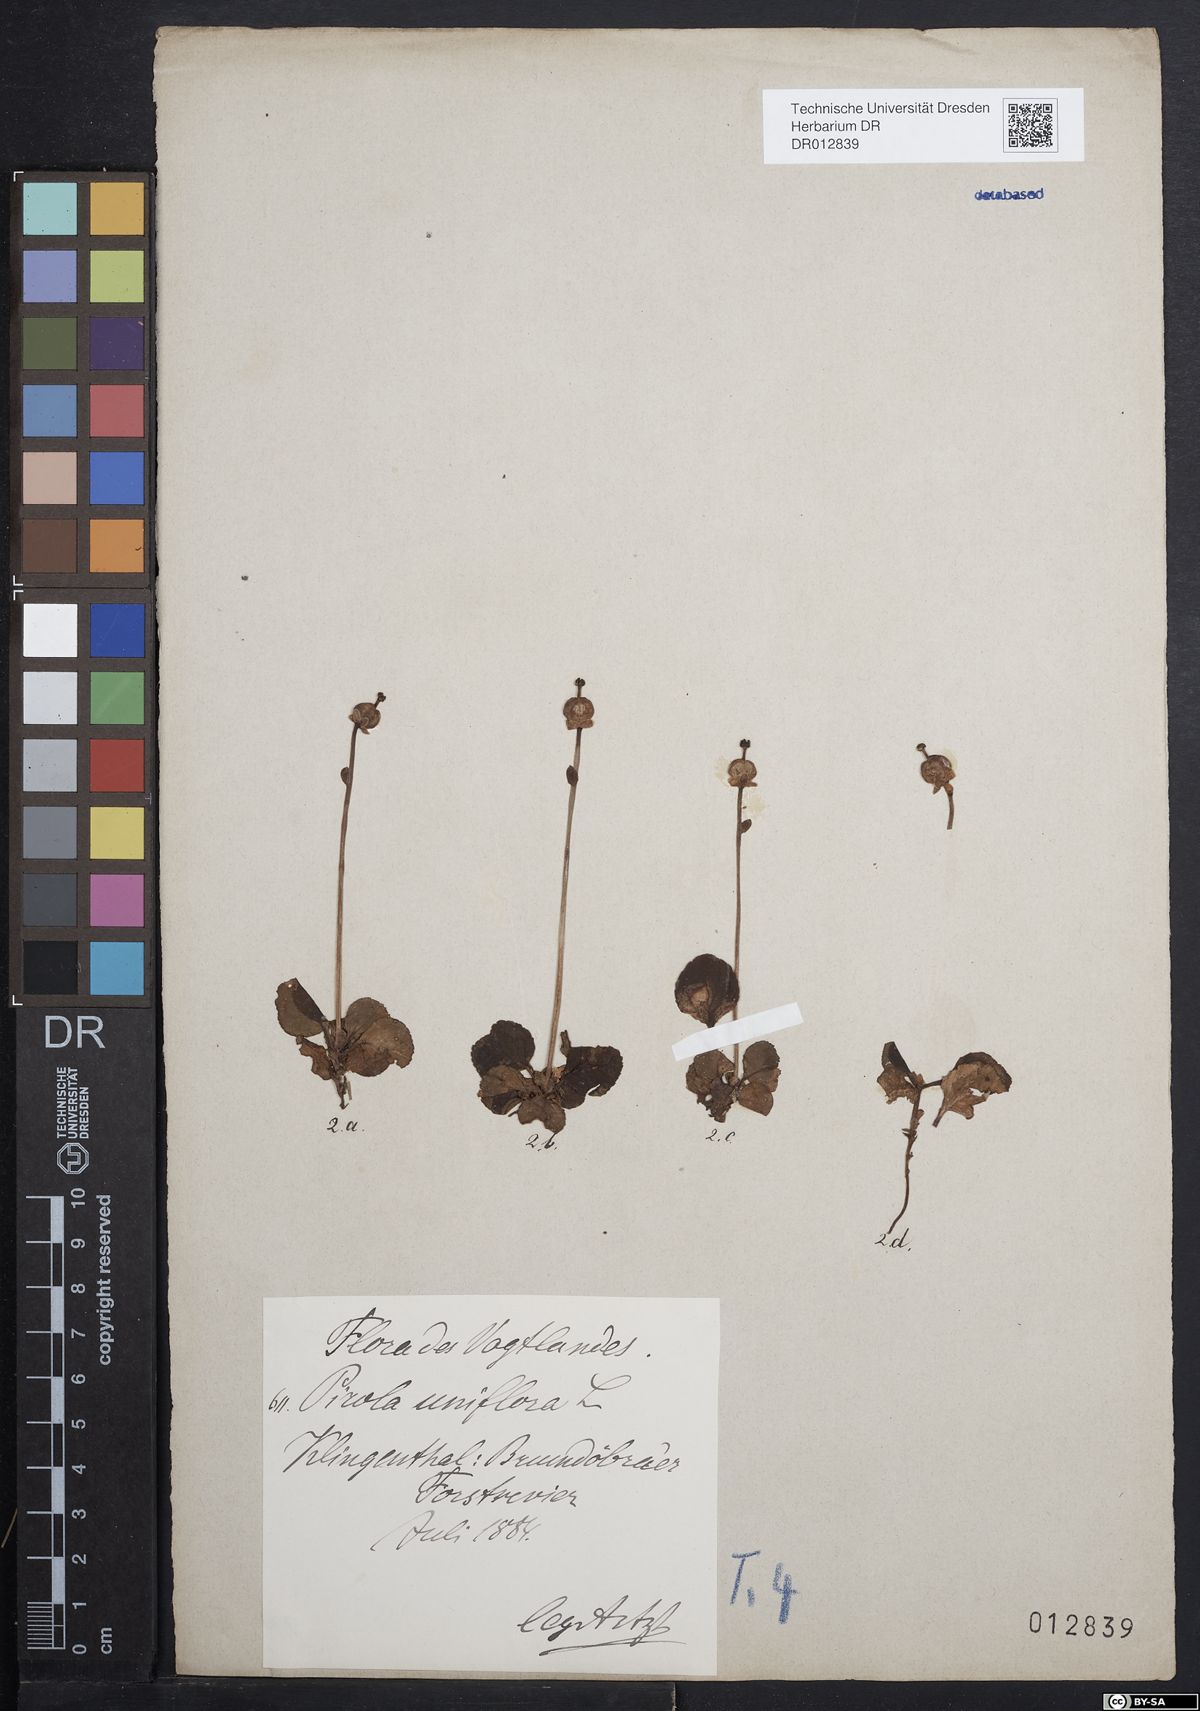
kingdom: Plantae
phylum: Tracheophyta
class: Magnoliopsida
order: Ericales
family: Ericaceae
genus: Moneses
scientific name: Moneses uniflora
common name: One-flowered wintergreen
